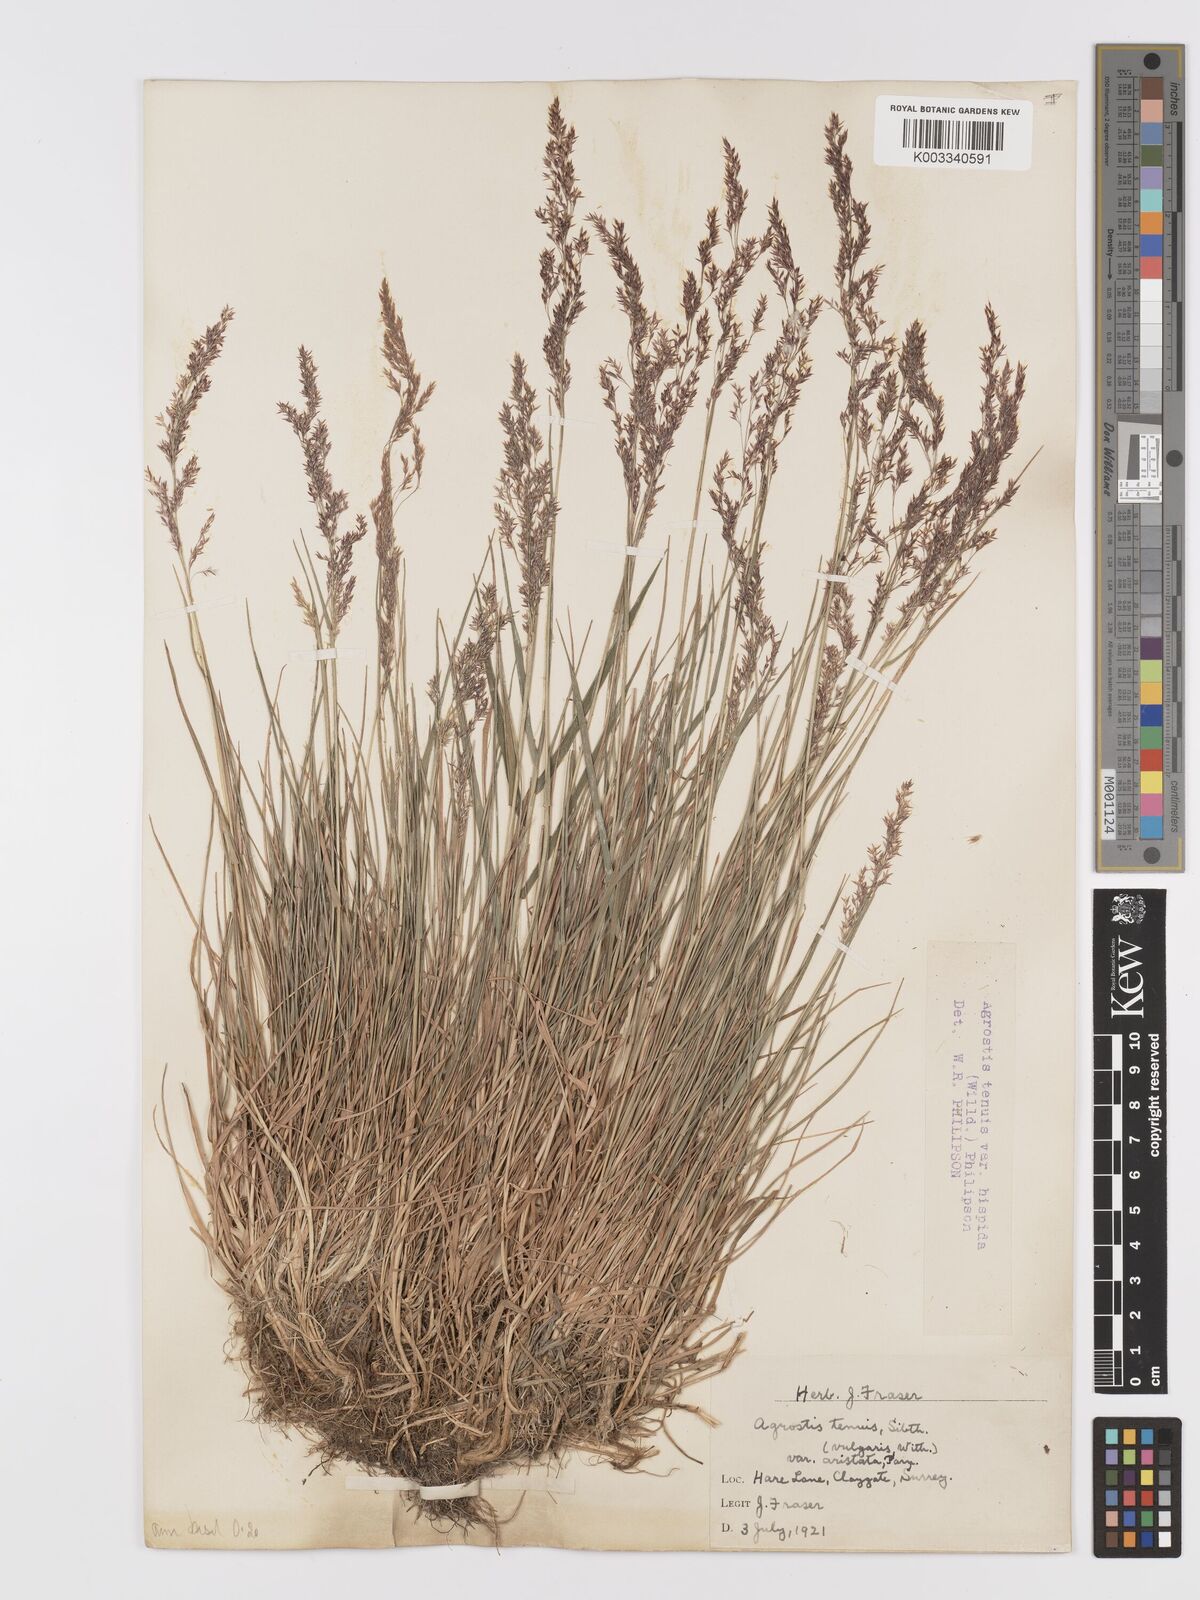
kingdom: Plantae
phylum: Tracheophyta
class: Liliopsida
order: Poales
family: Poaceae
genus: Agrostis
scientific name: Agrostis capillaris
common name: Colonial bentgrass
